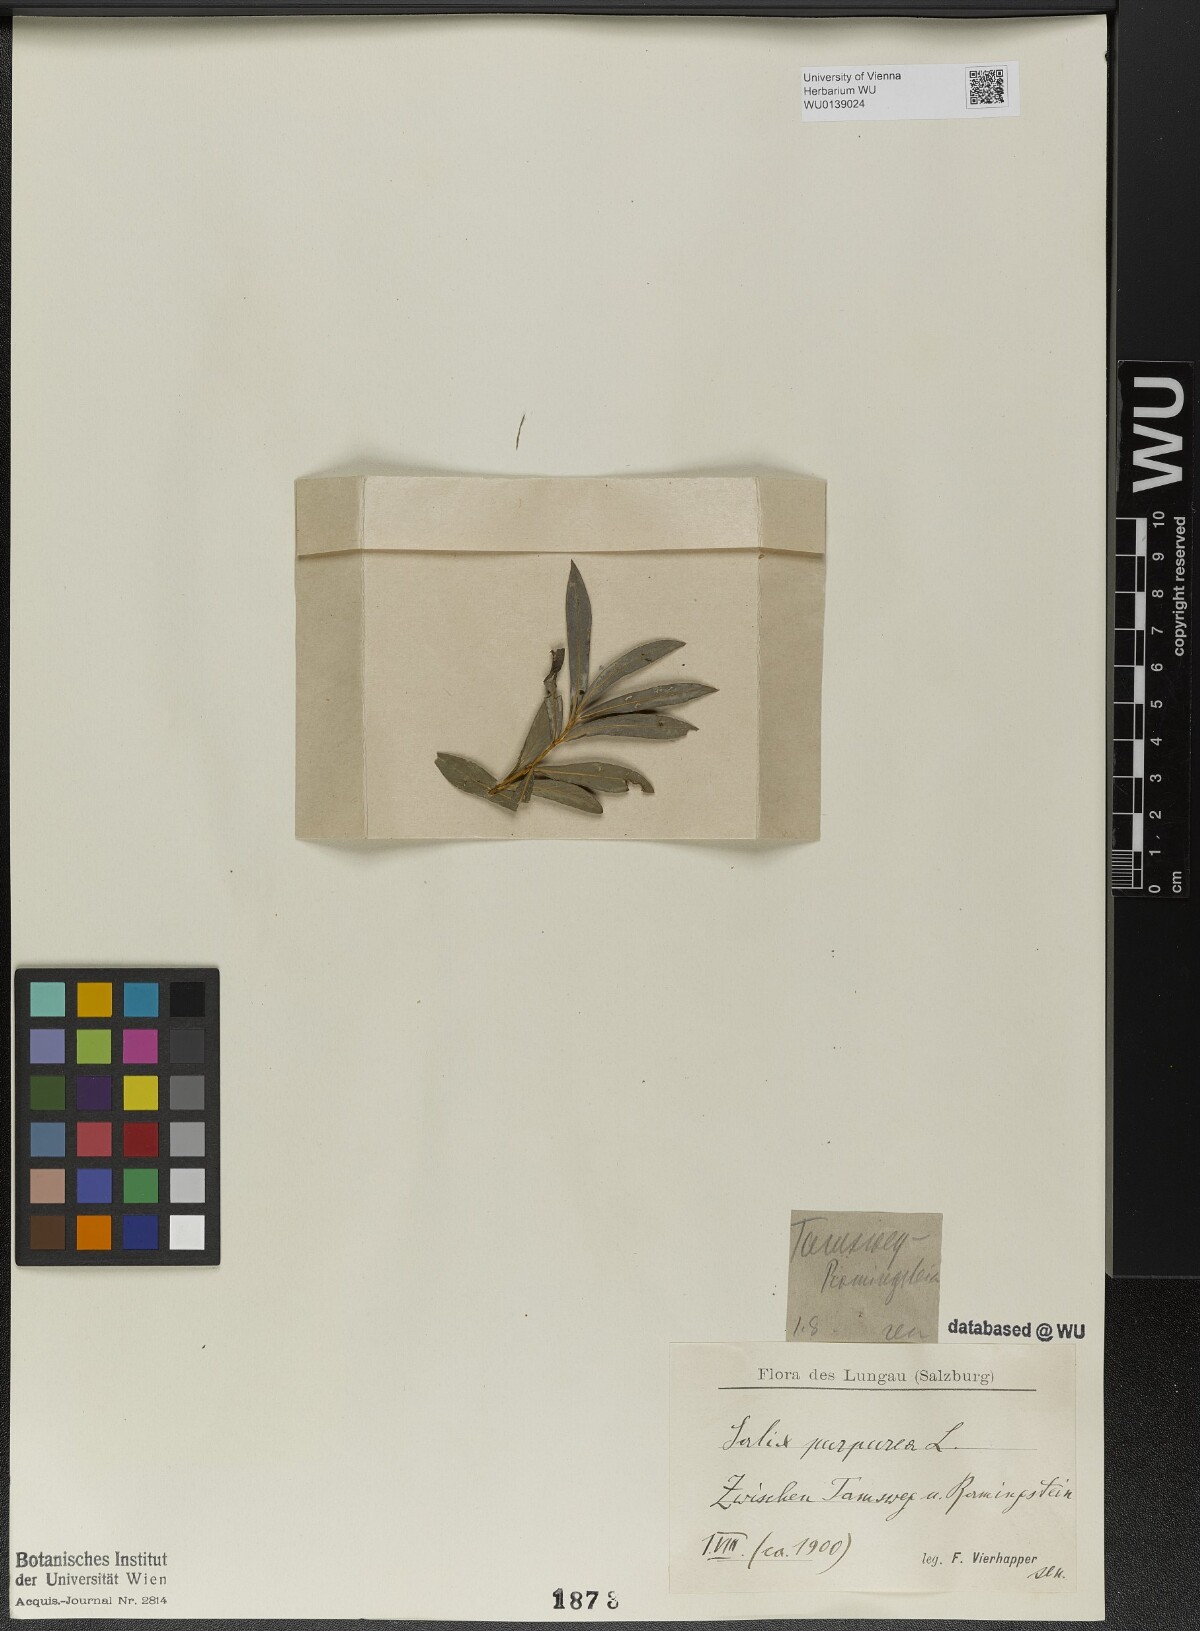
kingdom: Plantae
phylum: Tracheophyta
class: Magnoliopsida
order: Malpighiales
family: Salicaceae
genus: Salix
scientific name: Salix purpurea
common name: Purple willow
